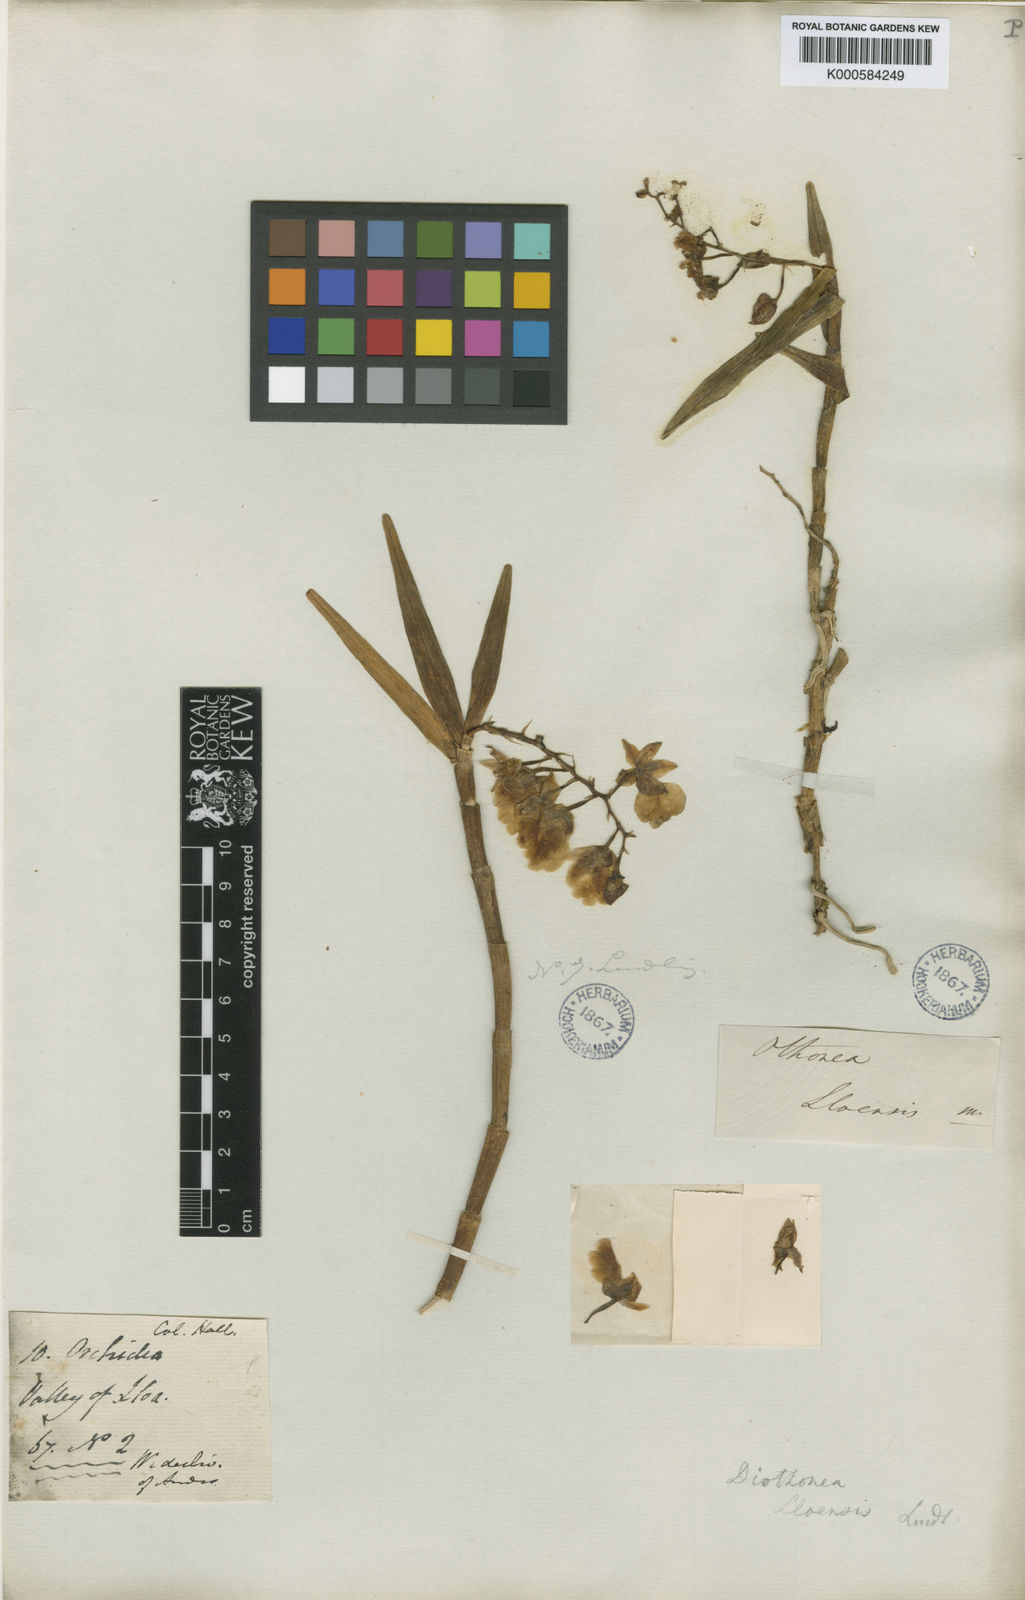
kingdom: Plantae
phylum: Tracheophyta
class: Liliopsida
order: Asparagales
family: Orchidaceae
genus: Epidendrum
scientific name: Epidendrum lloense
